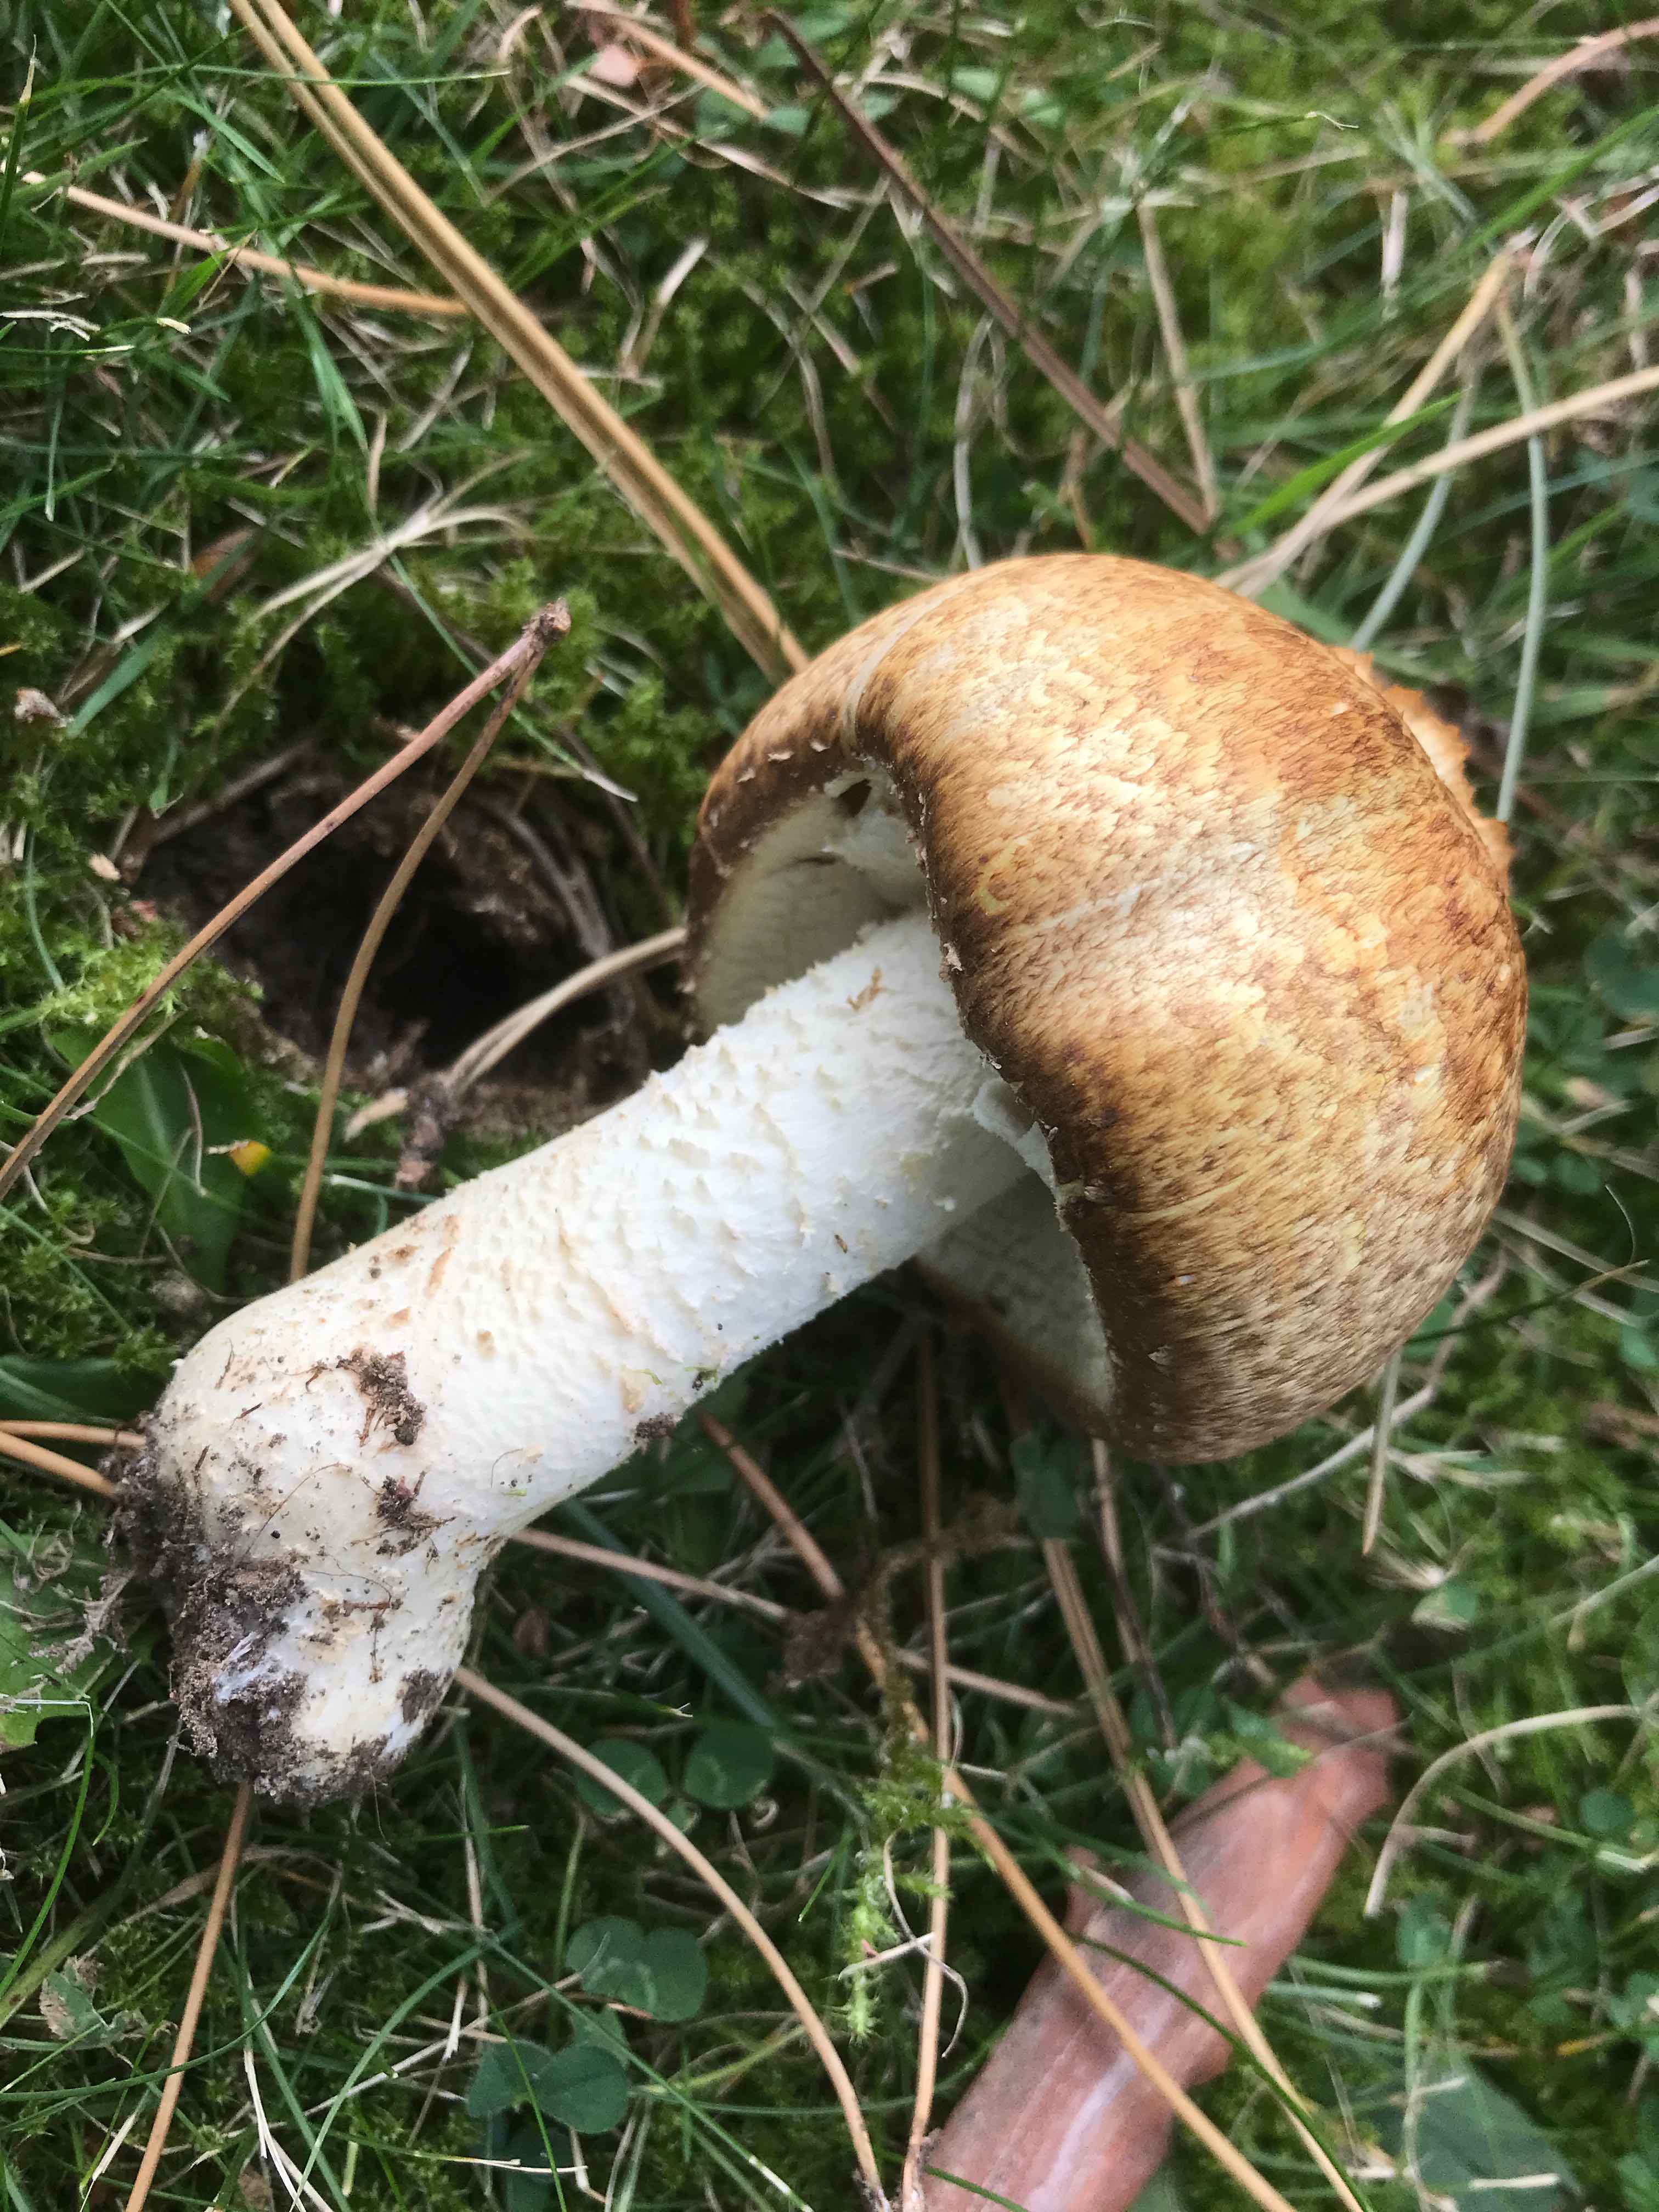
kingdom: Fungi
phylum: Basidiomycota
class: Agaricomycetes
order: Agaricales
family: Agaricaceae
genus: Agaricus
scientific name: Agaricus augustus
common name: prægtig champignon
